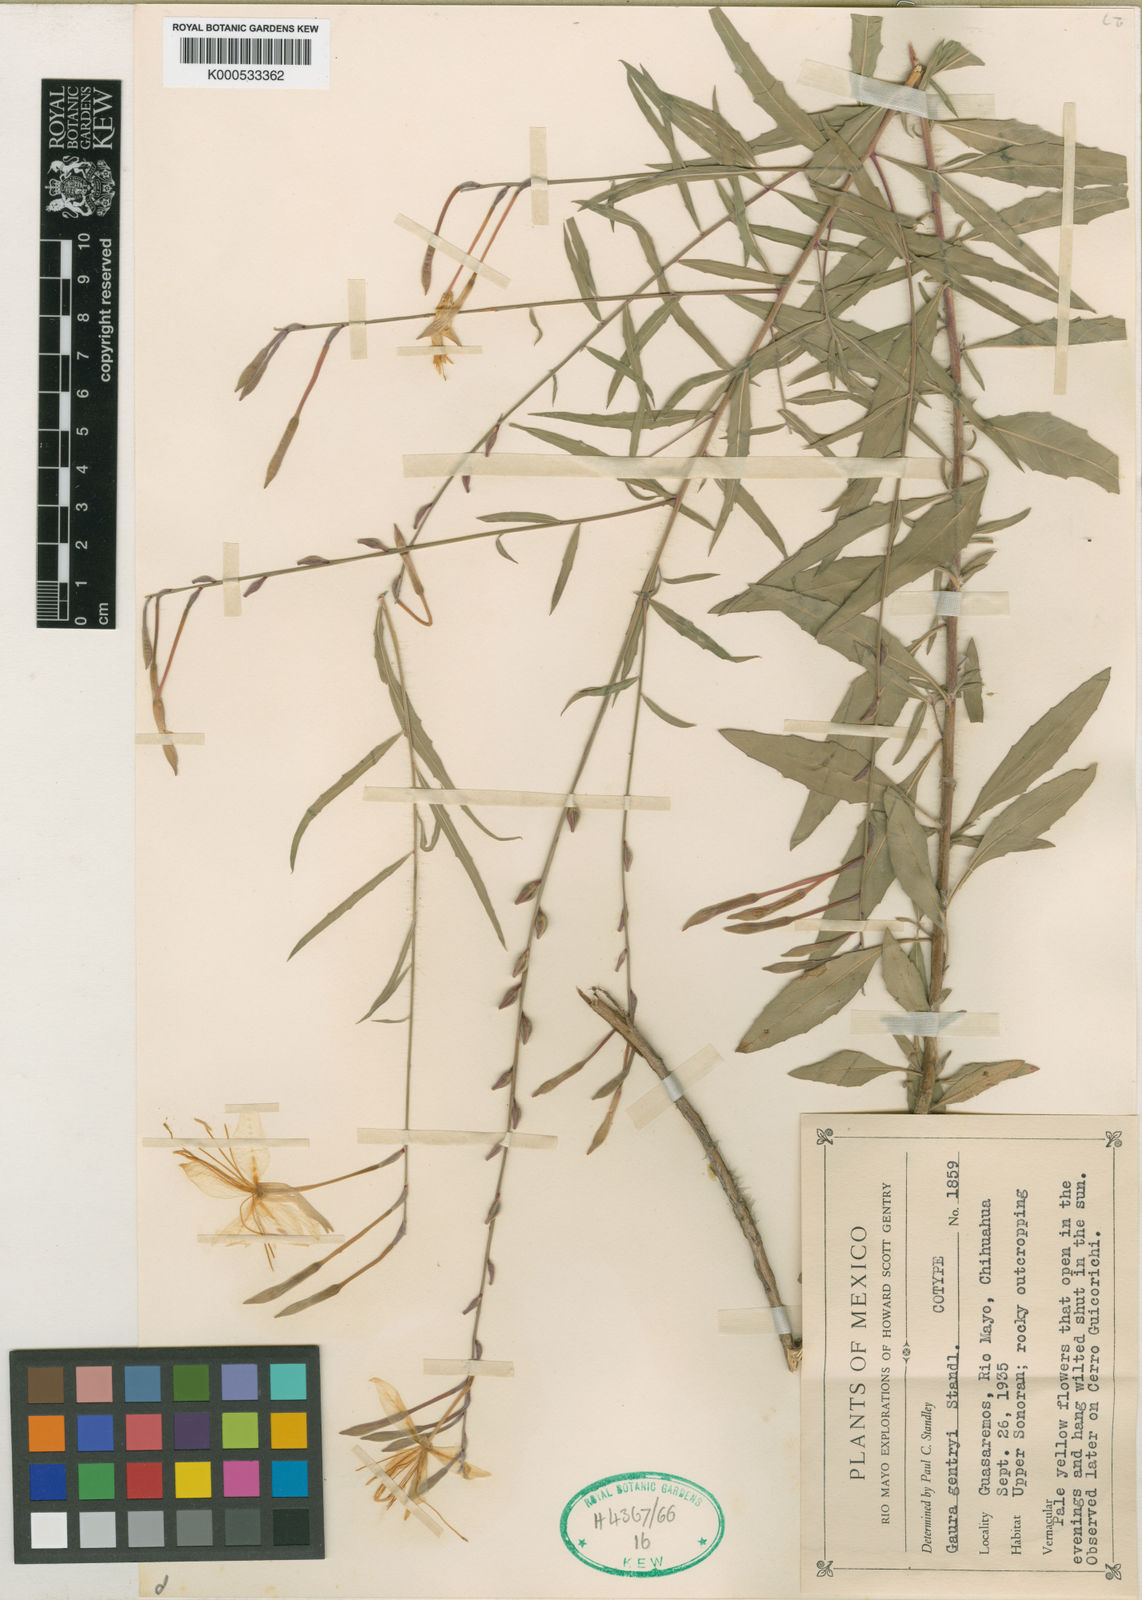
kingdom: Plantae
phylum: Tracheophyta
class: Magnoliopsida
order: Myrtales
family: Onagraceae
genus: Oenothera
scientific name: Oenothera anomala
